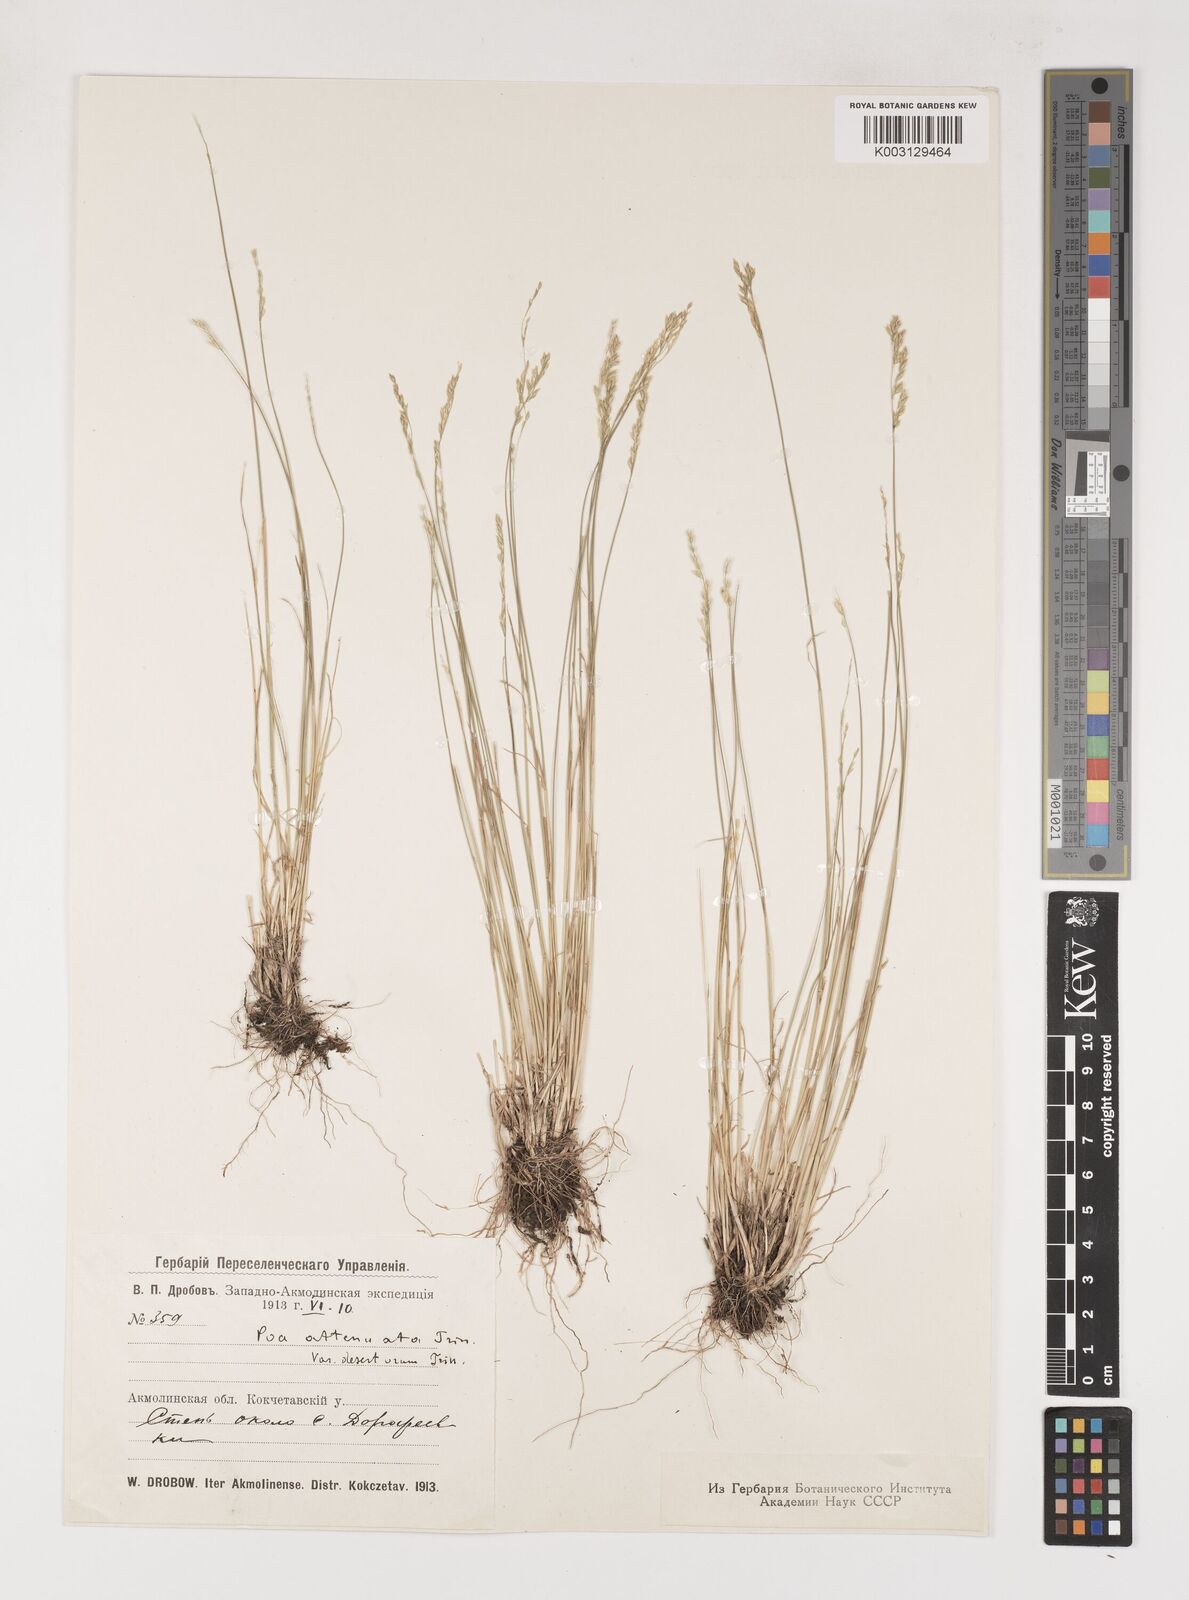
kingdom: Plantae
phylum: Tracheophyta
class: Liliopsida
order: Poales
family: Poaceae
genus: Poa
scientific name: Poa attenuata
